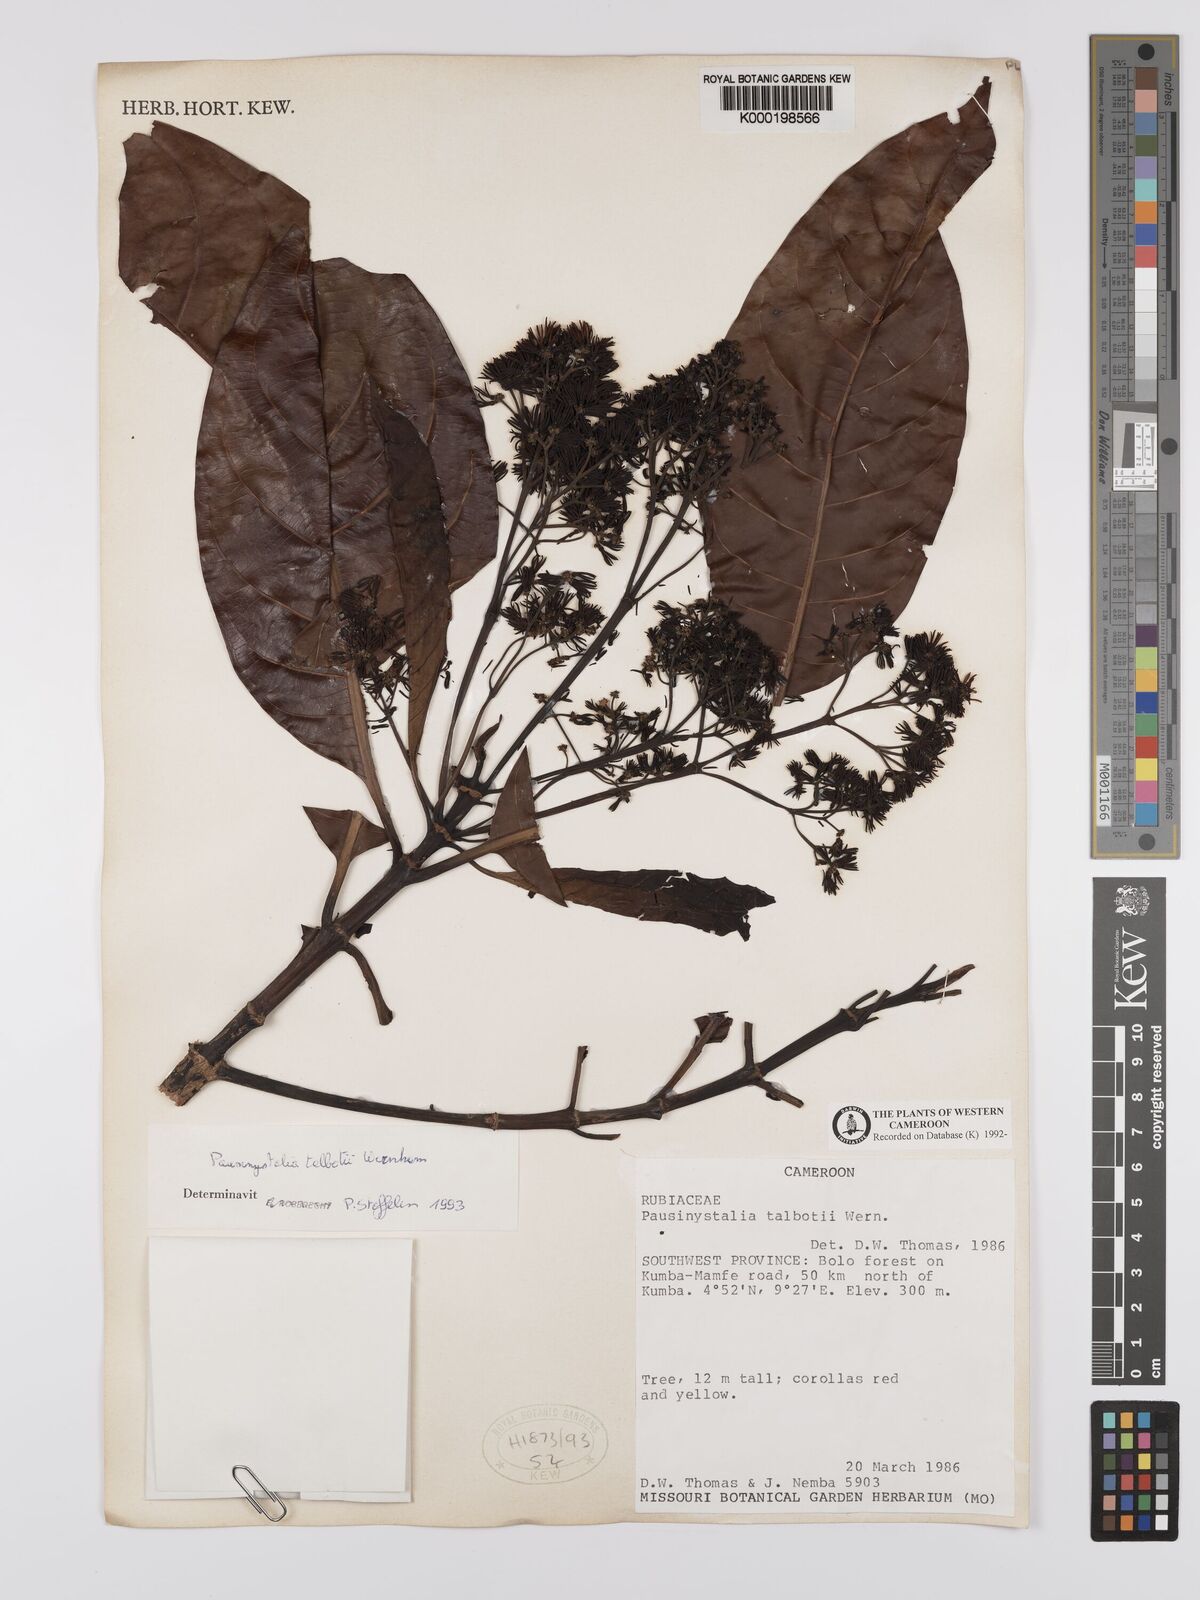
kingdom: Plantae
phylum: Tracheophyta
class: Magnoliopsida
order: Gentianales
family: Rubiaceae
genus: Corynanthe
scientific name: Corynanthe talbotii
